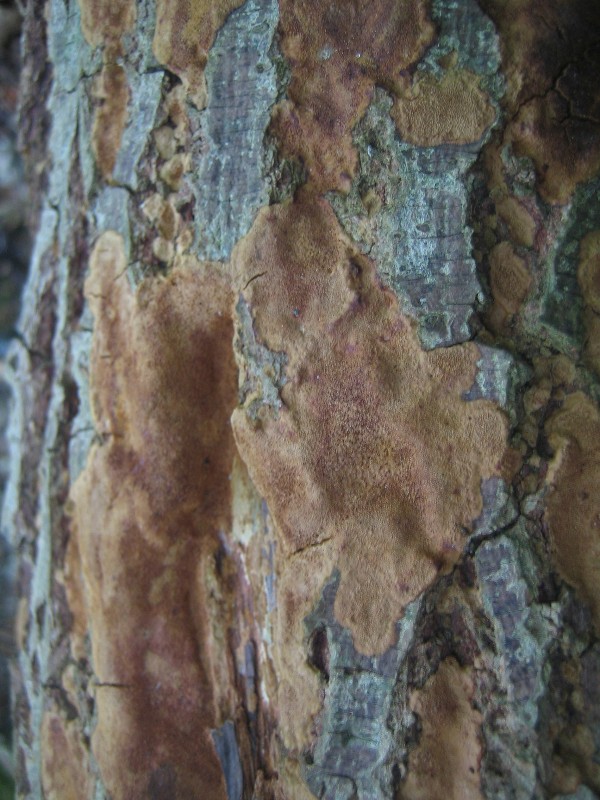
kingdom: Fungi
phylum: Basidiomycota
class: Agaricomycetes
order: Hymenochaetales
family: Hymenochaetaceae
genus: Fomitiporia
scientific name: Fomitiporia
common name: ildporesvamp
